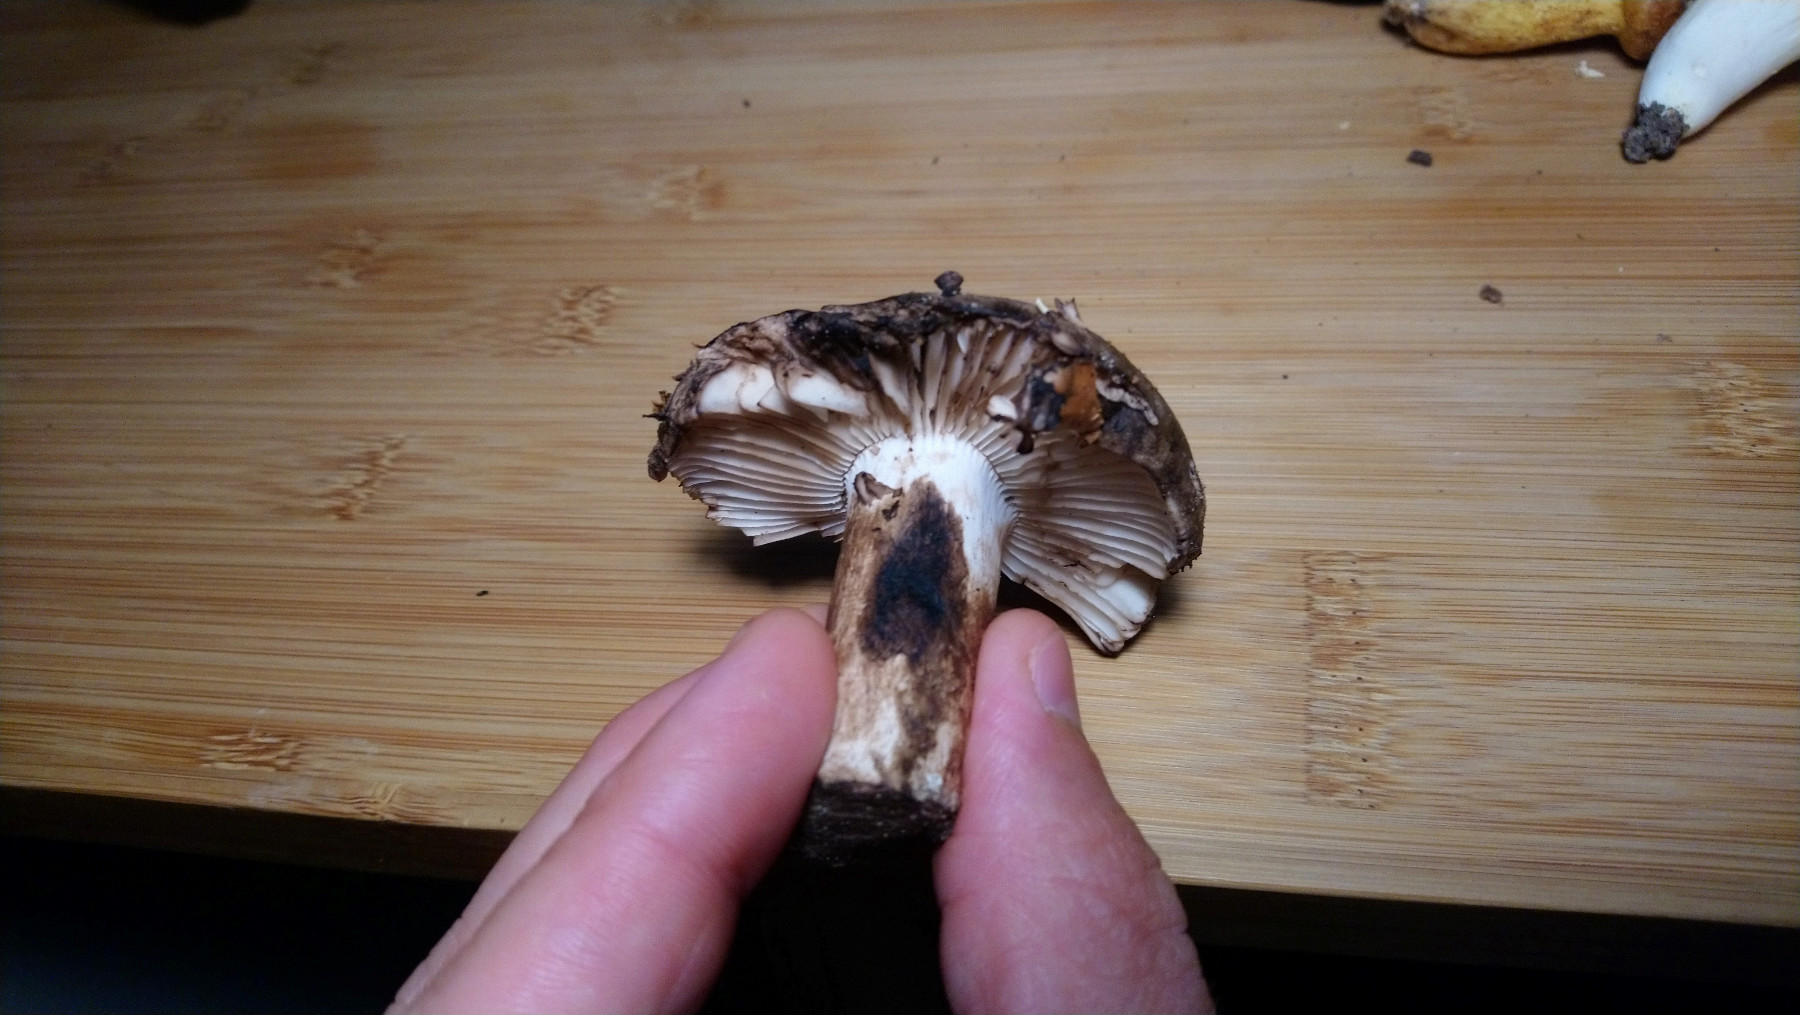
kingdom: Fungi
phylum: Basidiomycota
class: Agaricomycetes
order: Russulales
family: Russulaceae
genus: Russula
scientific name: Russula adusta
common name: sværtende skørhat
